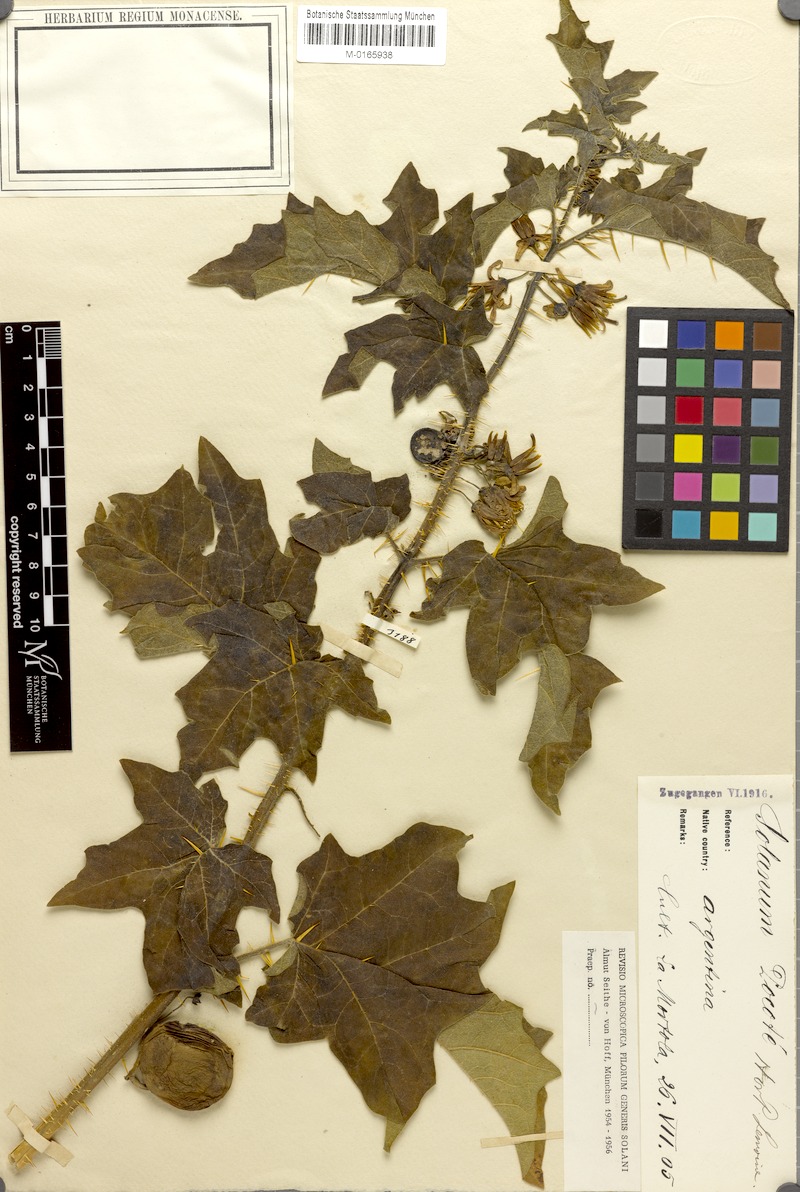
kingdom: Plantae
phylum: Tracheophyta
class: Magnoliopsida
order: Solanales
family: Solanaceae
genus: Solanum
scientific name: Solanum hieronymi
